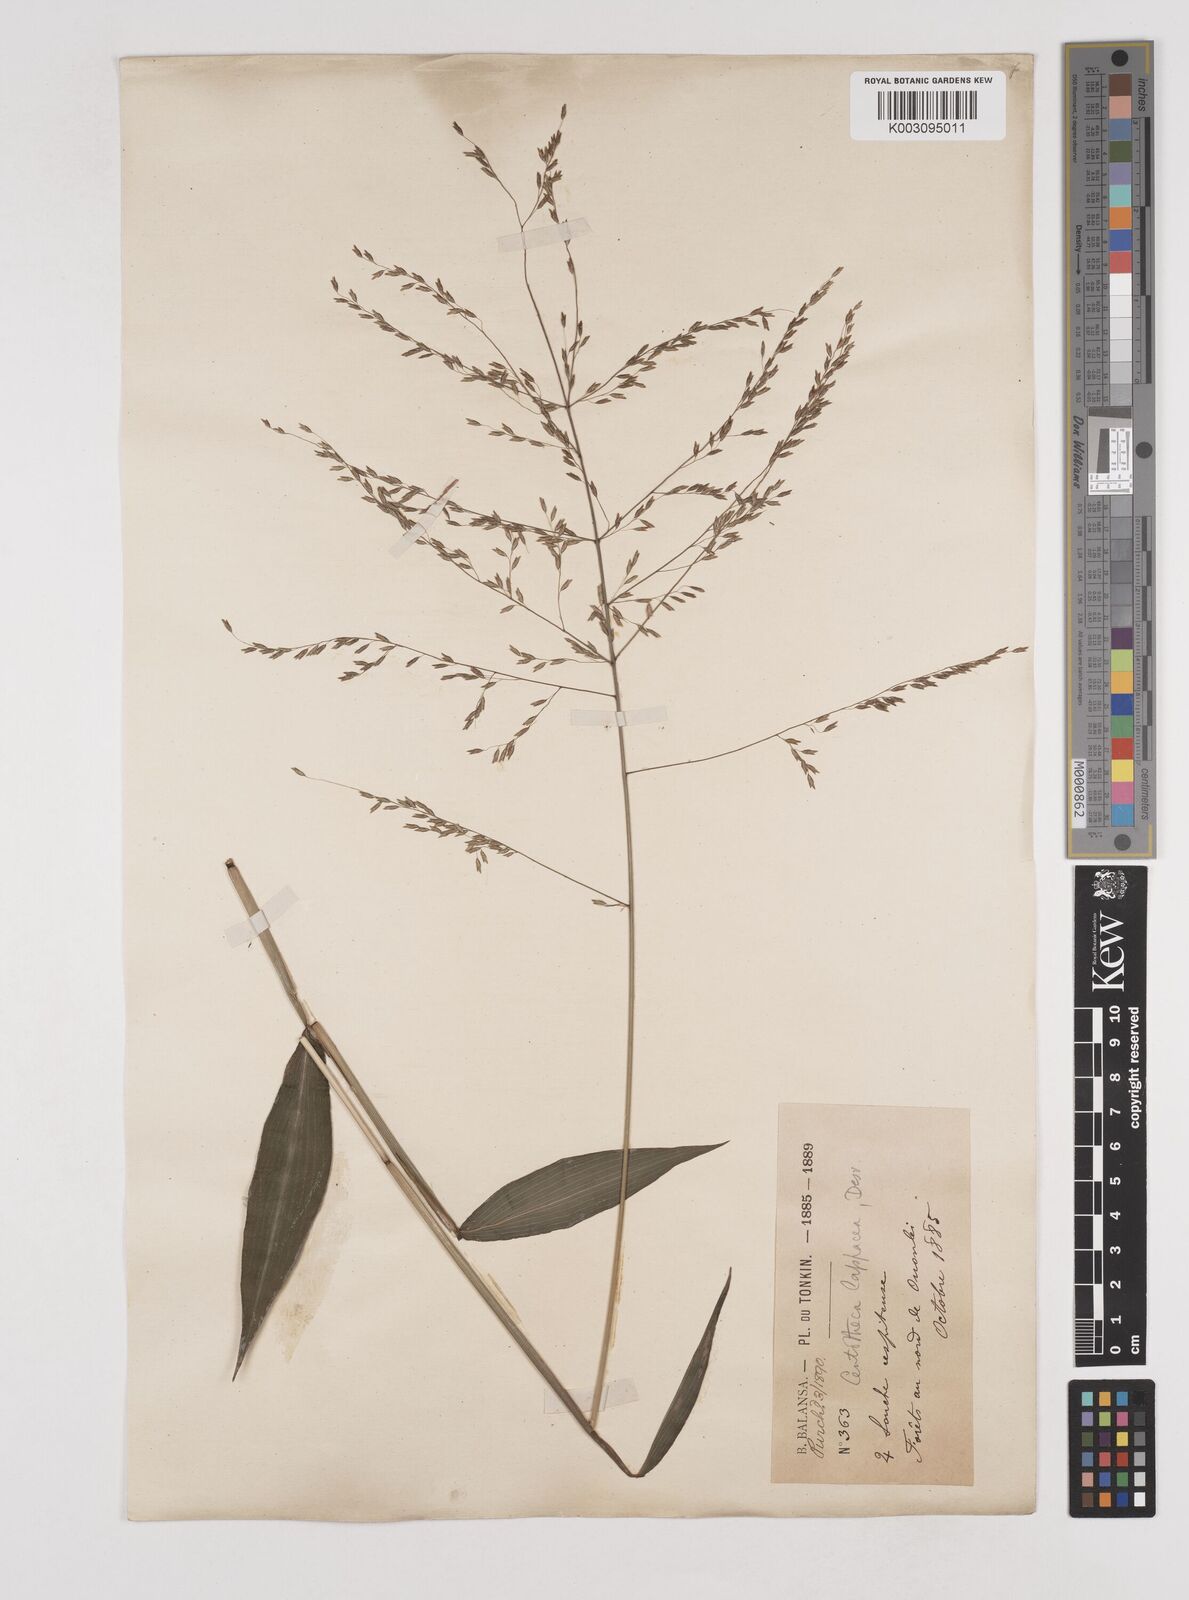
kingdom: Plantae
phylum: Tracheophyta
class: Liliopsida
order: Poales
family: Poaceae
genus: Centotheca
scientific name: Centotheca lappacea
